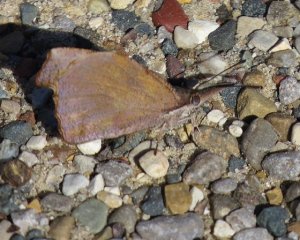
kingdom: Animalia
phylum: Arthropoda
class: Insecta
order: Lepidoptera
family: Nymphalidae
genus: Libytheana
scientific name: Libytheana carinenta
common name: American Snout
